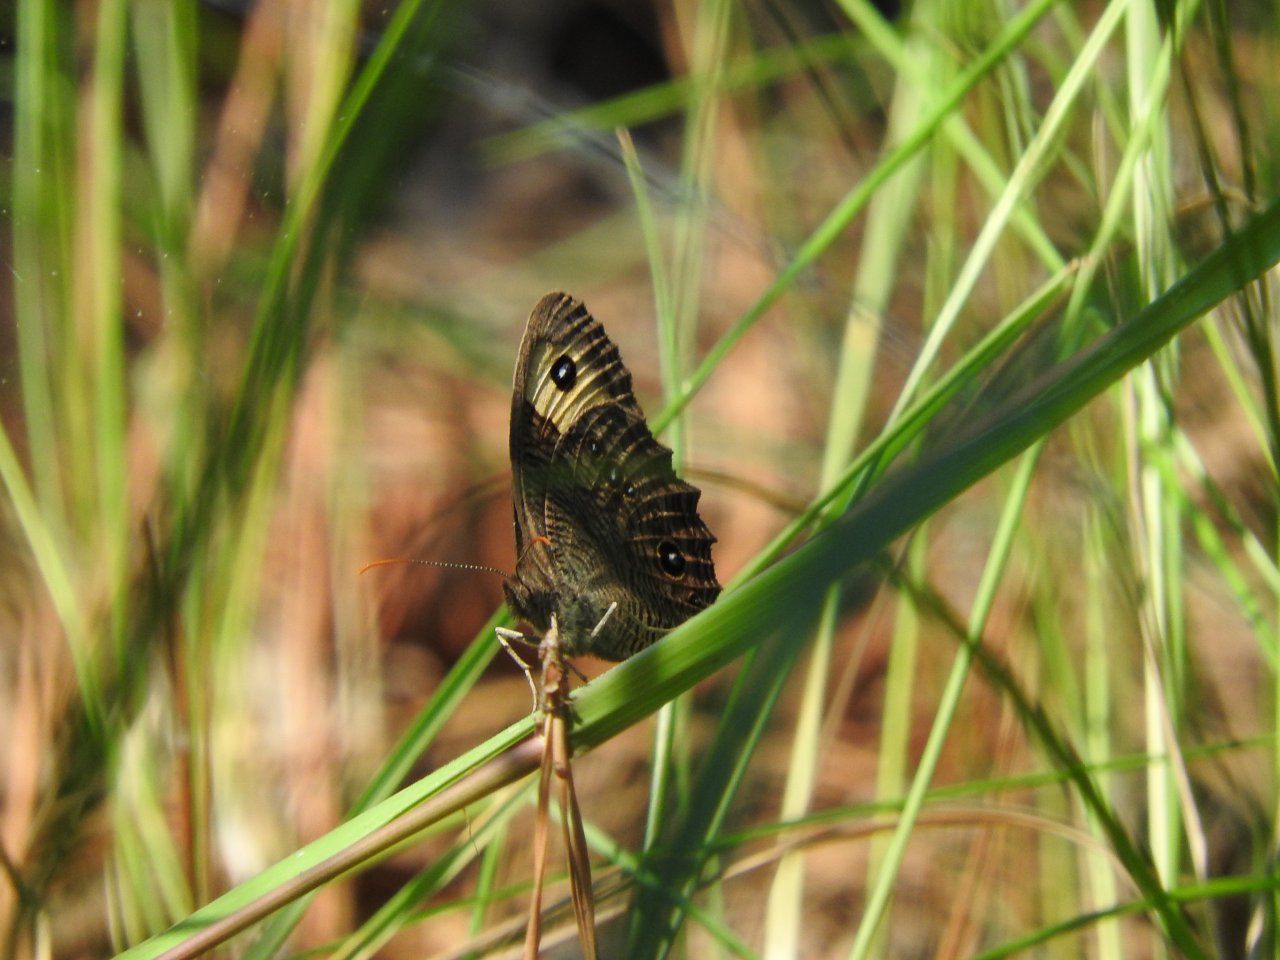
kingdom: Animalia
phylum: Arthropoda
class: Insecta
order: Lepidoptera
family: Nymphalidae
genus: Cercyonis
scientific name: Cercyonis pegala
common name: Common Wood-Nymph
